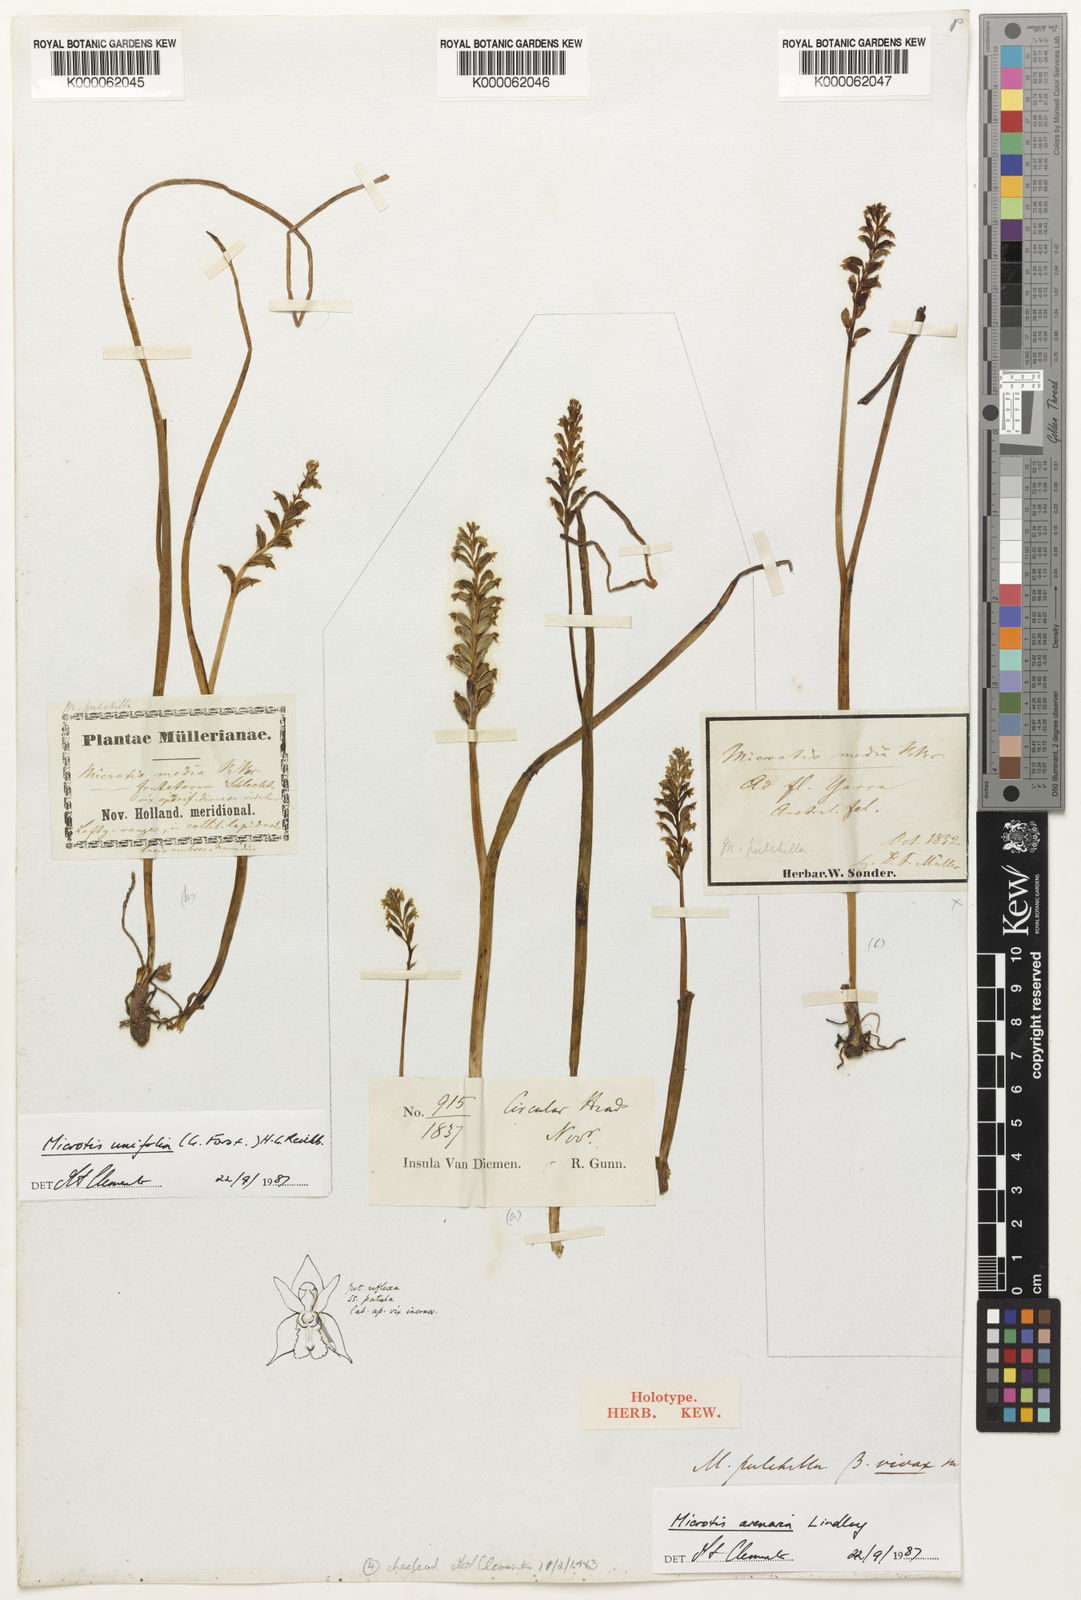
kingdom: Plantae
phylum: Tracheophyta
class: Liliopsida
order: Asparagales
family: Orchidaceae
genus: Microtis
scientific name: Microtis arenaria
